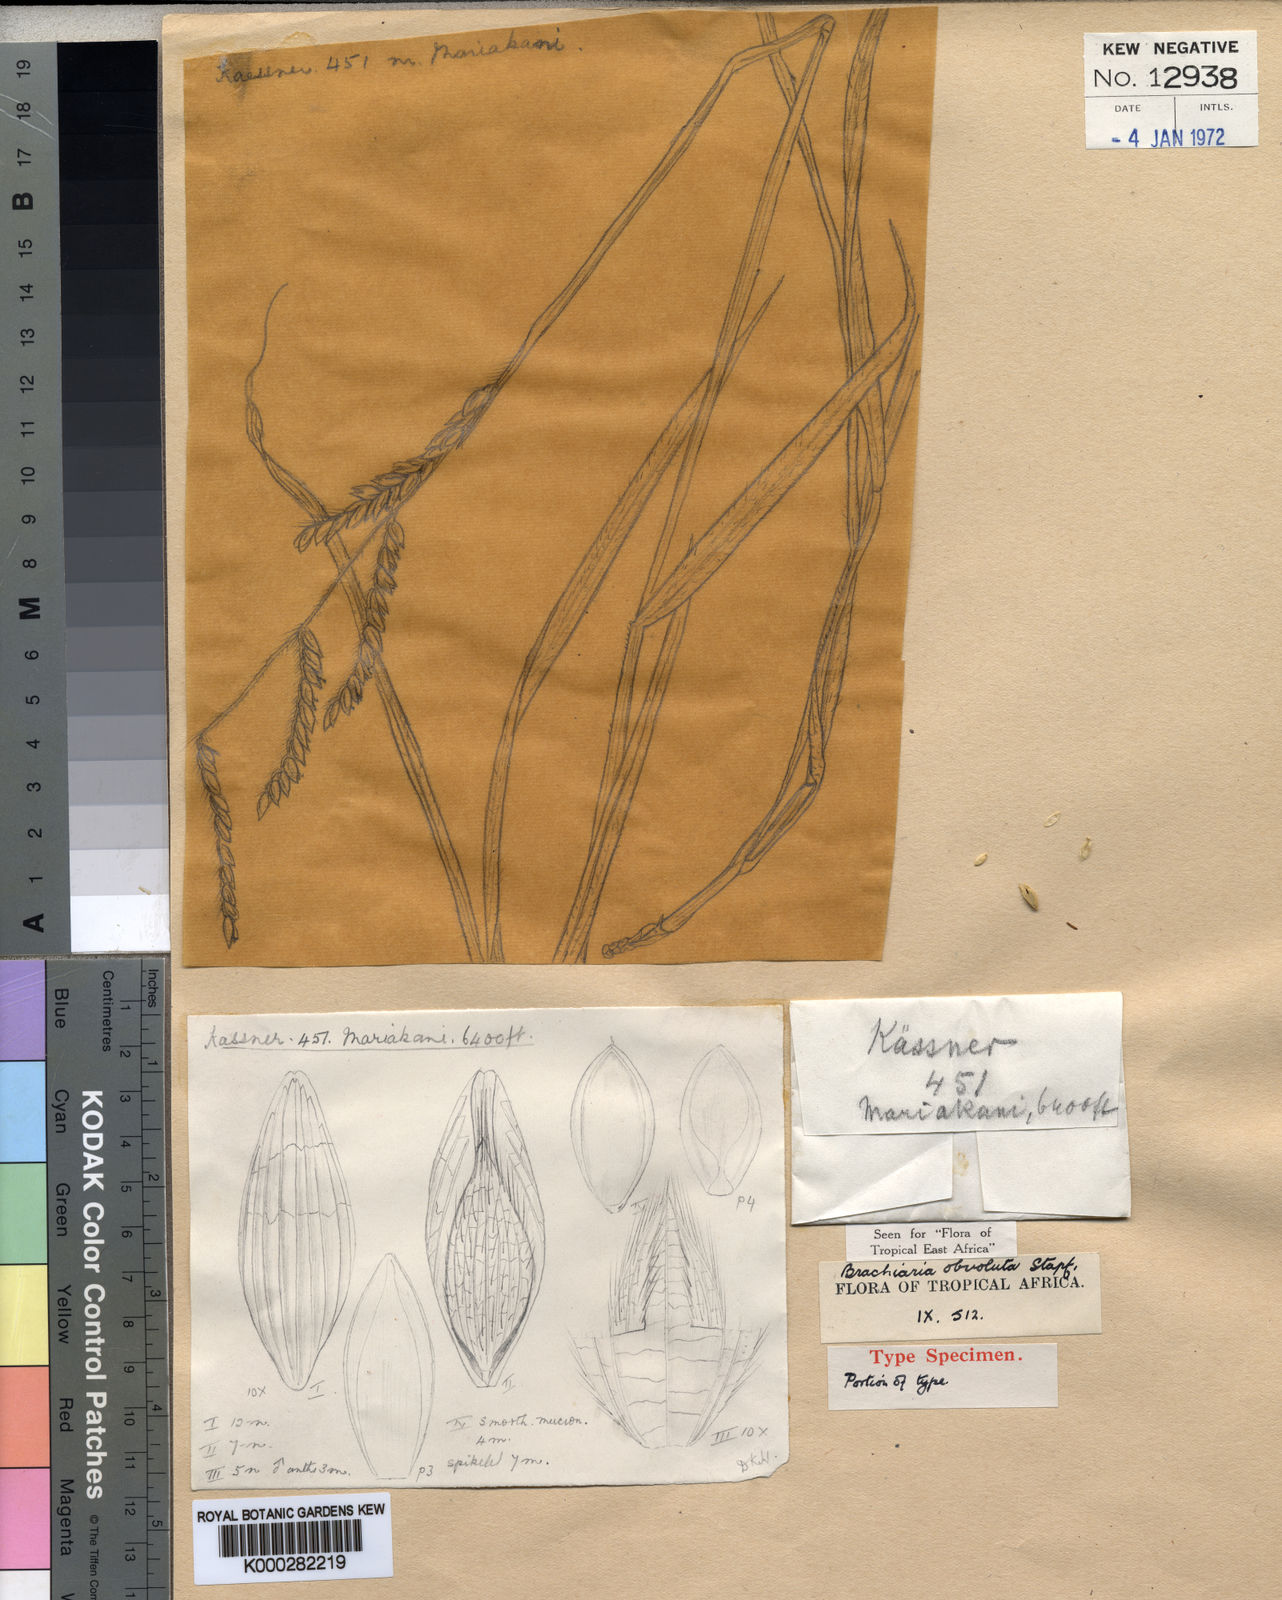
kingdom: Plantae
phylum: Tracheophyta
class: Liliopsida
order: Poales
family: Poaceae
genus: Urochloa
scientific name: Urochloa dictyoneura
